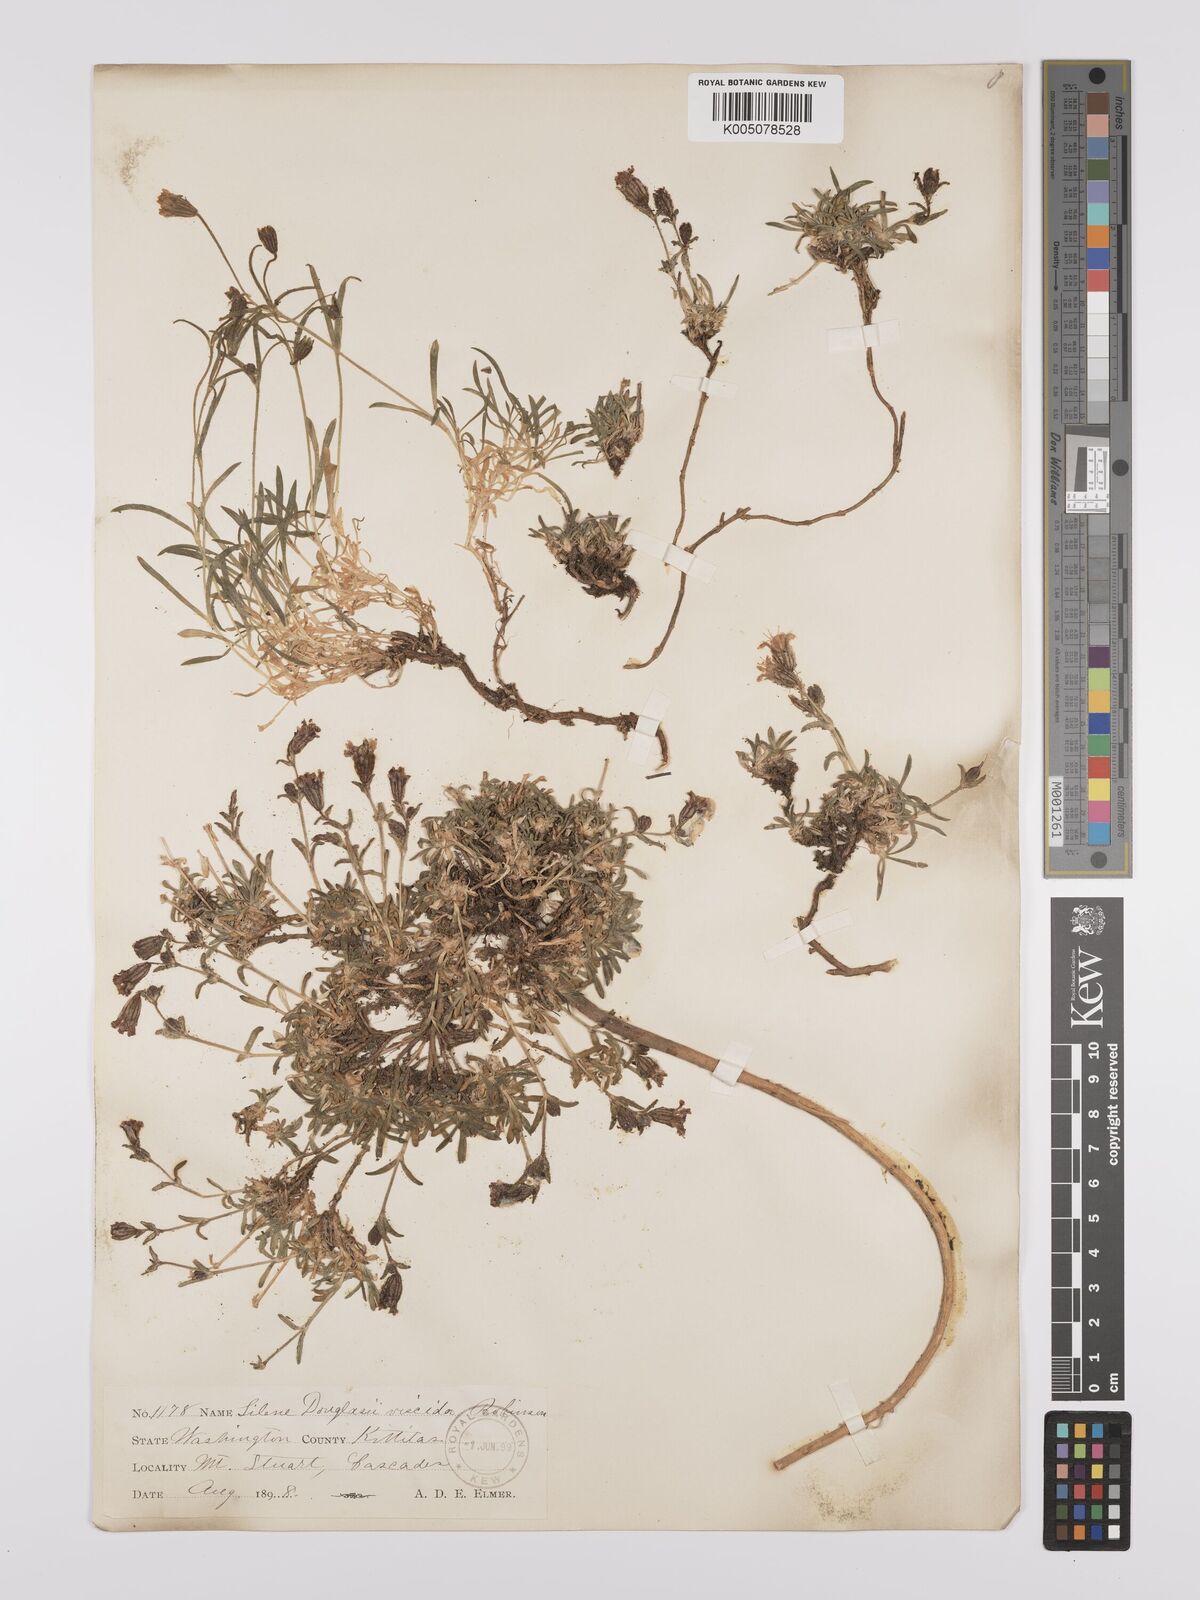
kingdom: Plantae
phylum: Tracheophyta
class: Magnoliopsida
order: Caryophyllales
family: Caryophyllaceae
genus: Silene
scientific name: Silene suksdorfii
